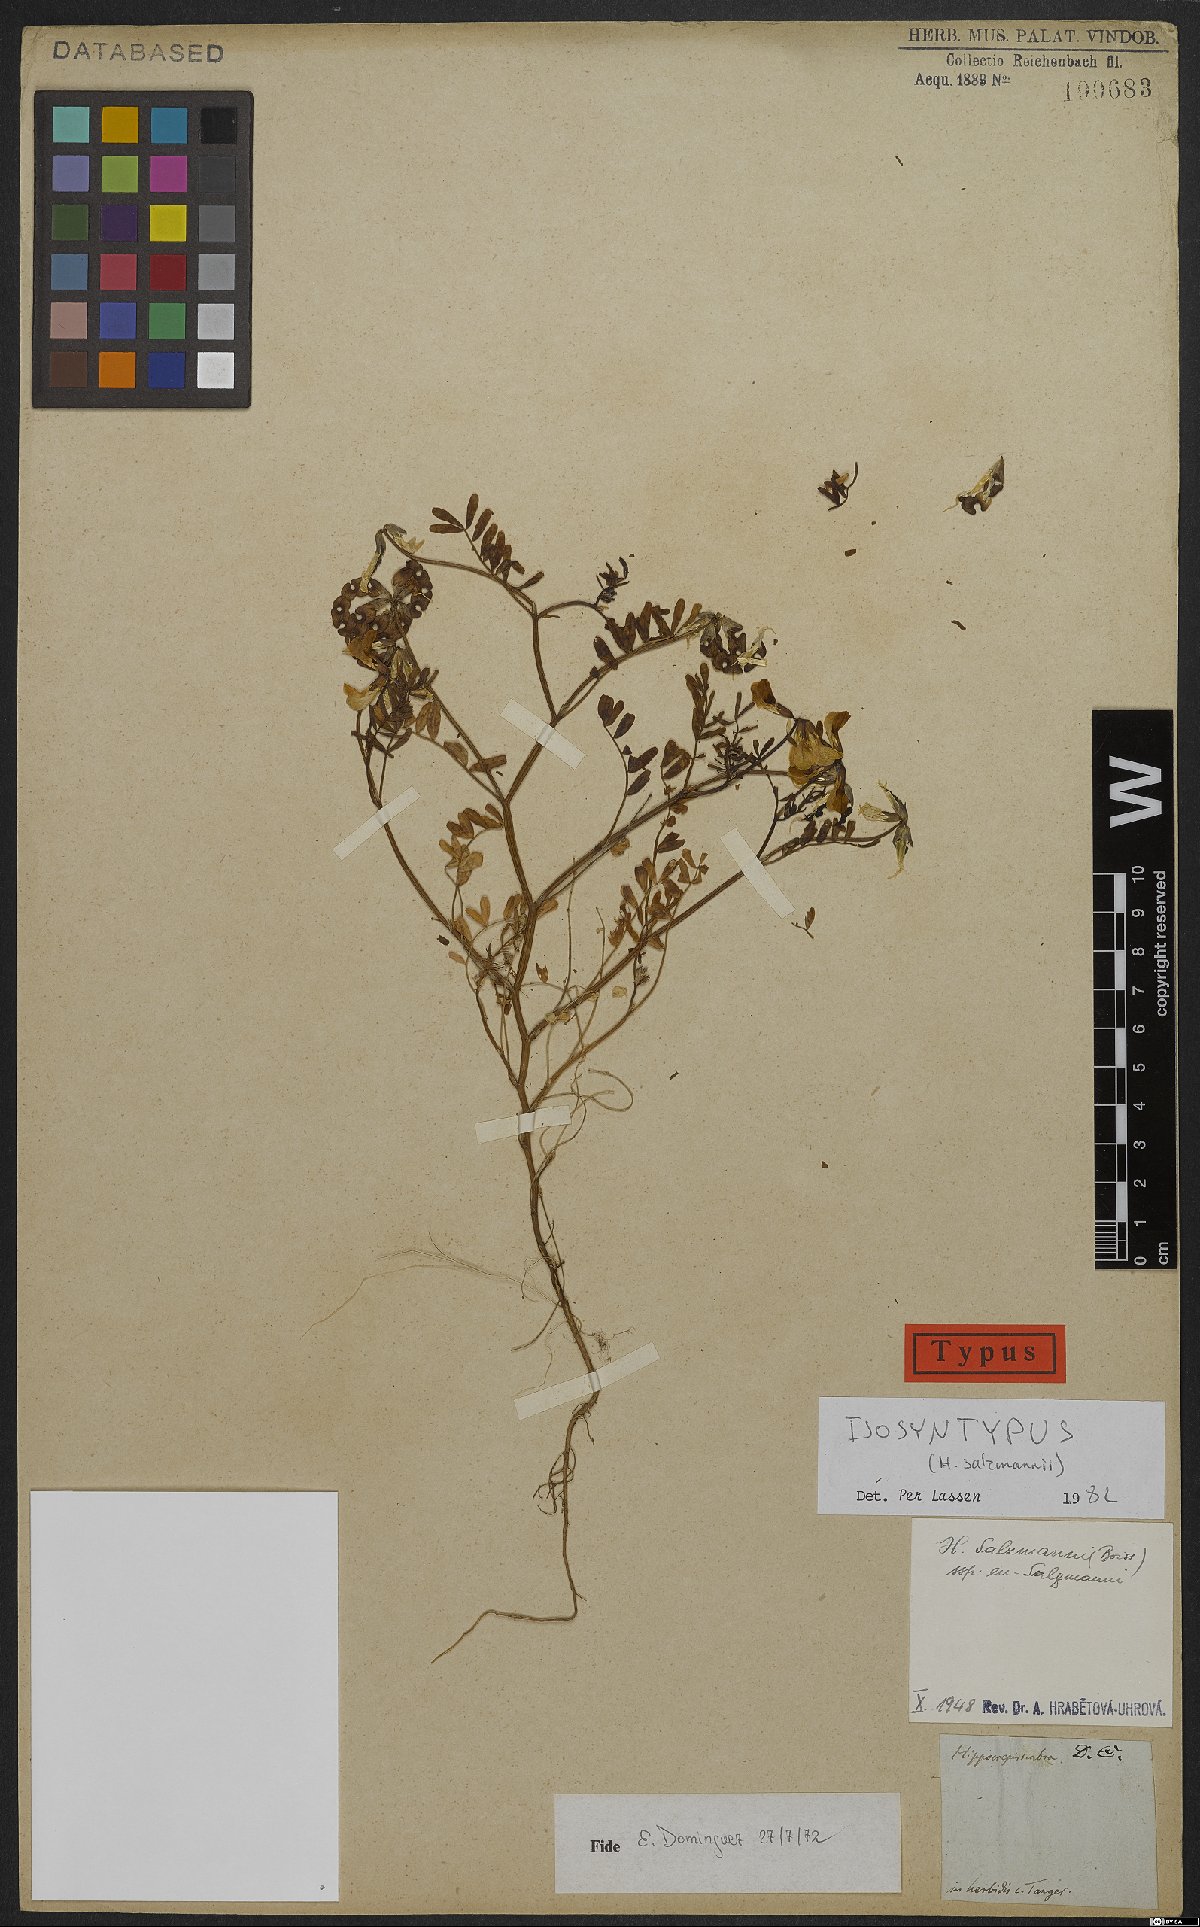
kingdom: Plantae
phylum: Tracheophyta
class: Magnoliopsida
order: Fabales
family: Fabaceae
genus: Hippocrepis
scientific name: Hippocrepis salzmannii
